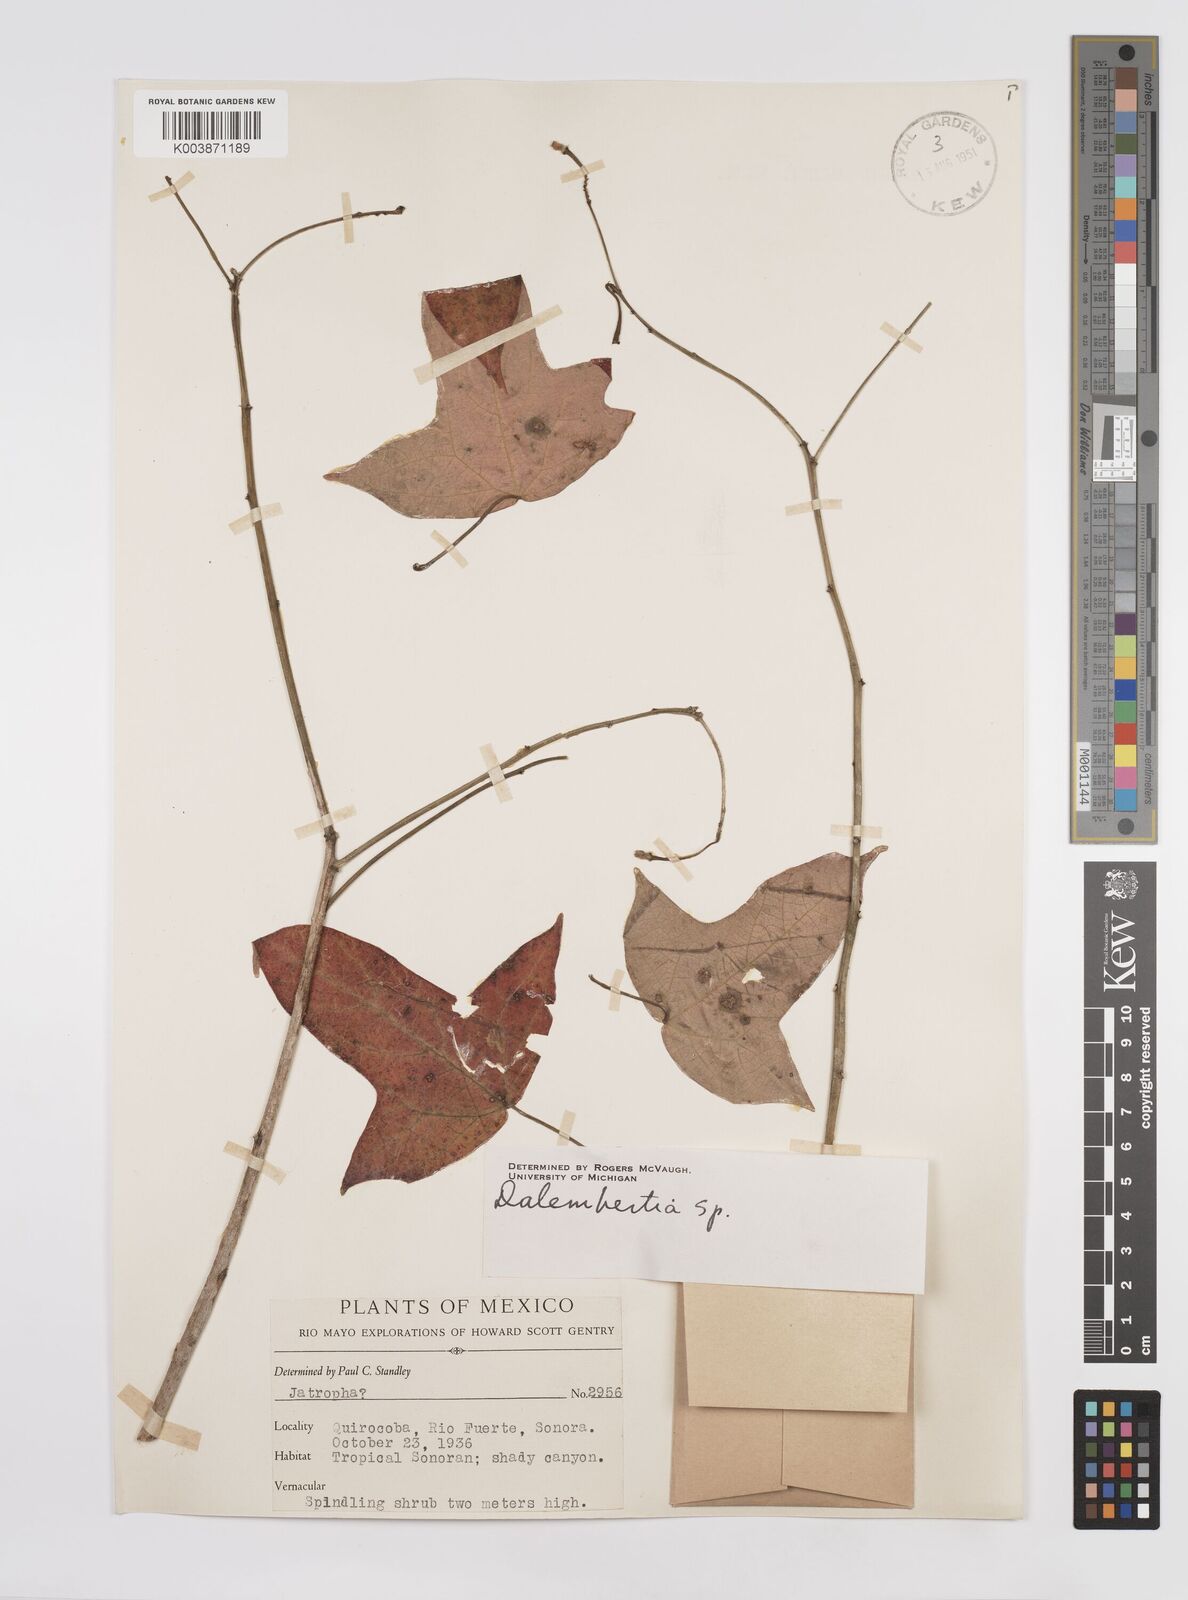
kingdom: Plantae
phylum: Tracheophyta
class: Magnoliopsida
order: Malpighiales
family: Euphorbiaceae
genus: Dalembertia
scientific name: Dalembertia
